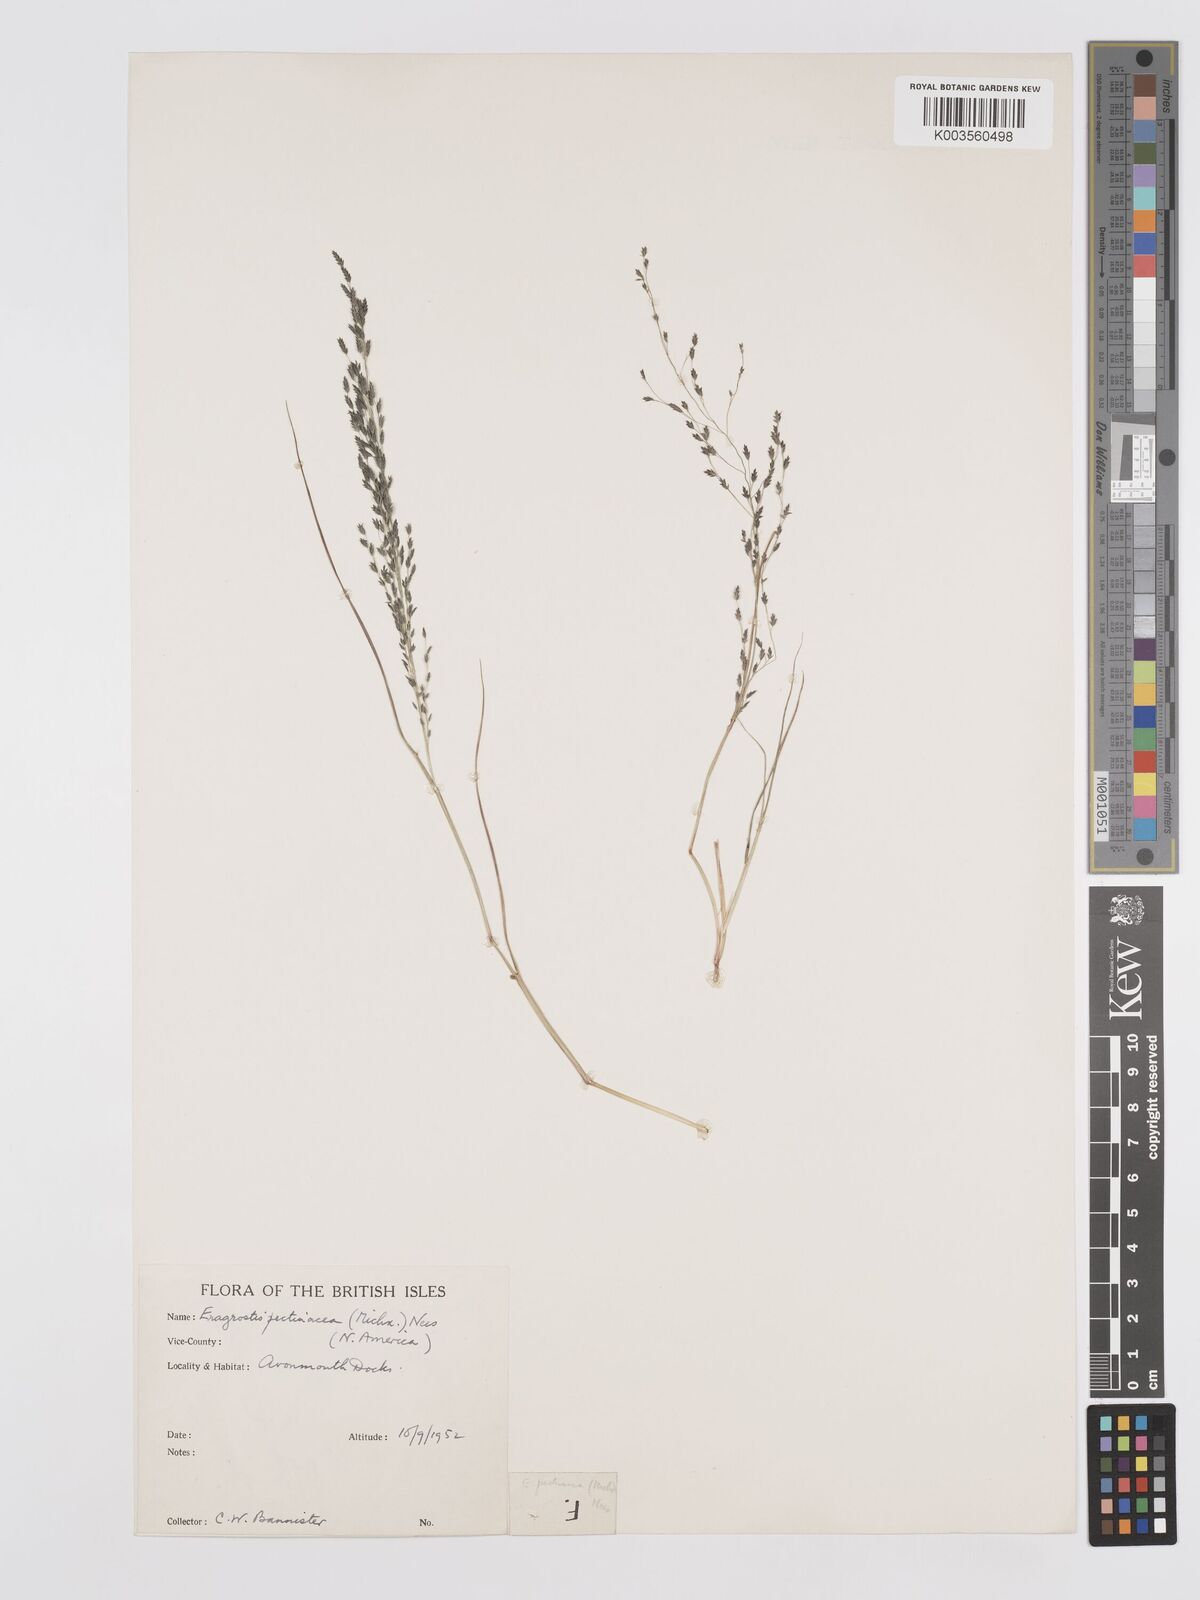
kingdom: Plantae
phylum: Tracheophyta
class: Liliopsida
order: Poales
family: Poaceae
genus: Eragrostis
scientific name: Eragrostis pectinacea
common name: Tufted lovegrass
